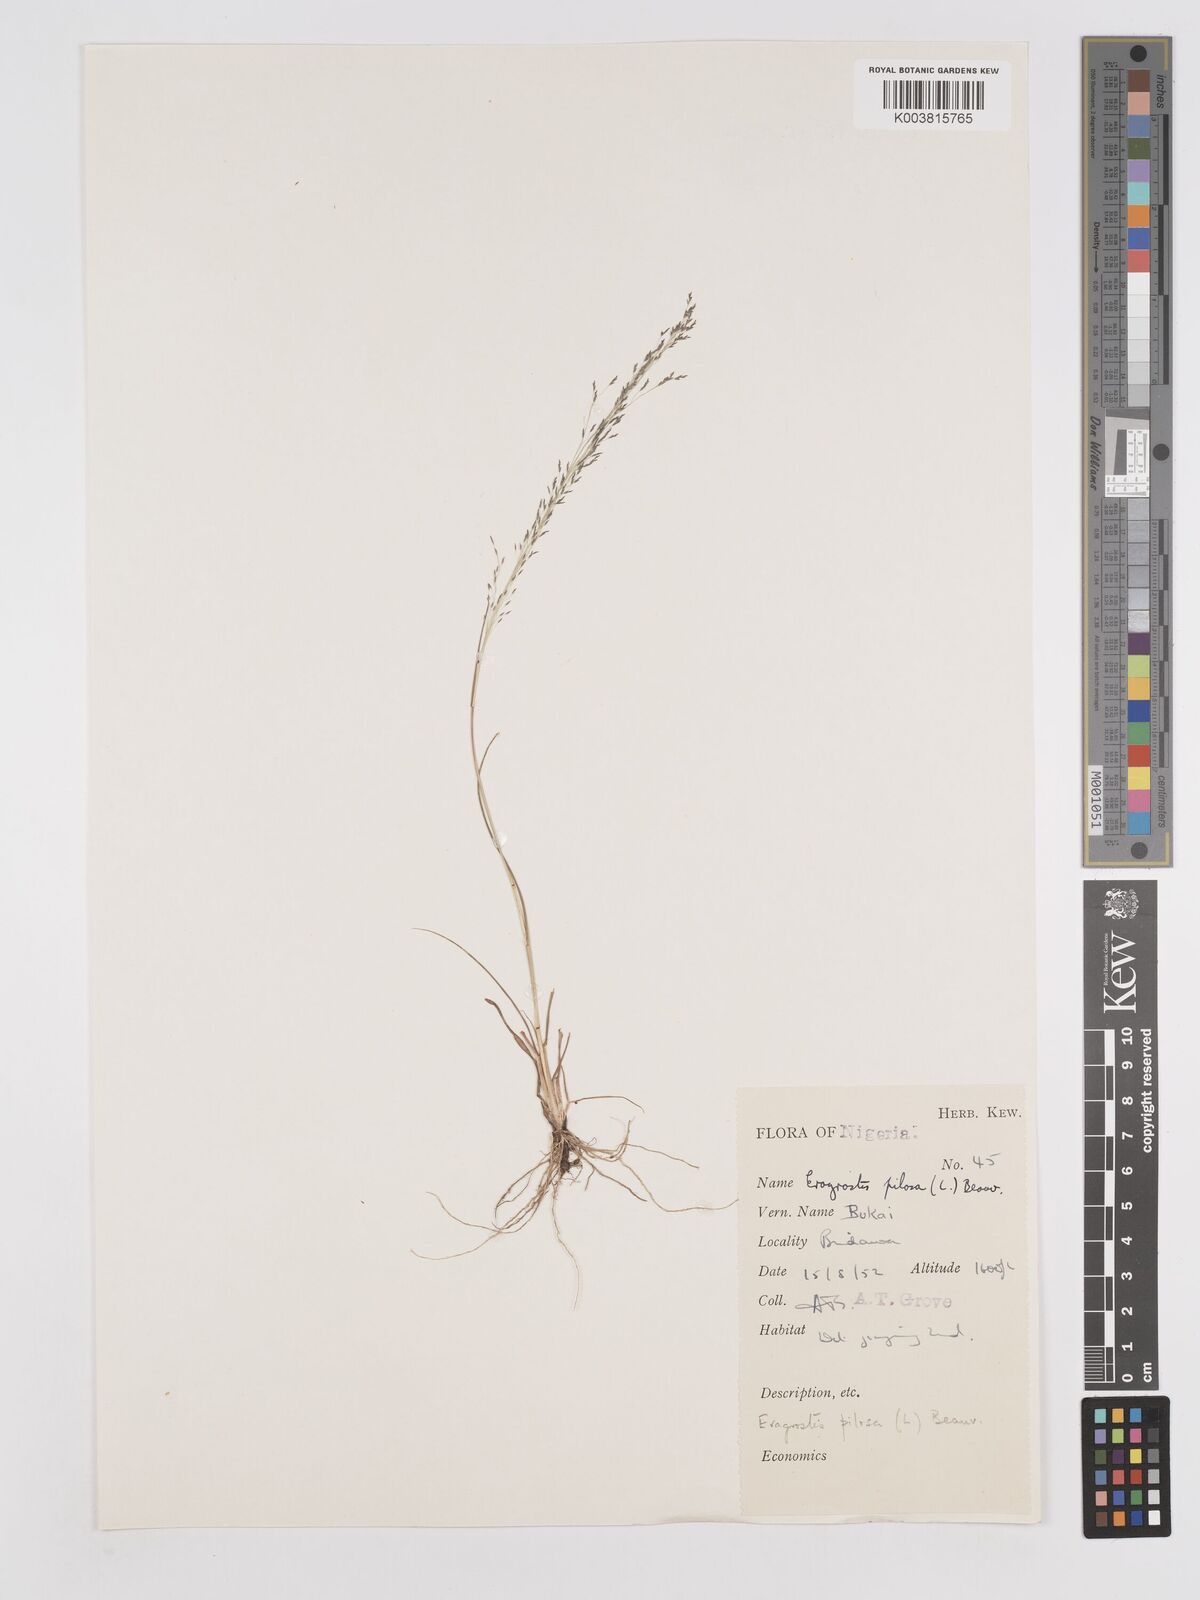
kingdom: Plantae
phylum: Tracheophyta
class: Liliopsida
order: Poales
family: Poaceae
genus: Eragrostis
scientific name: Eragrostis pilosa
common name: Indian lovegrass
